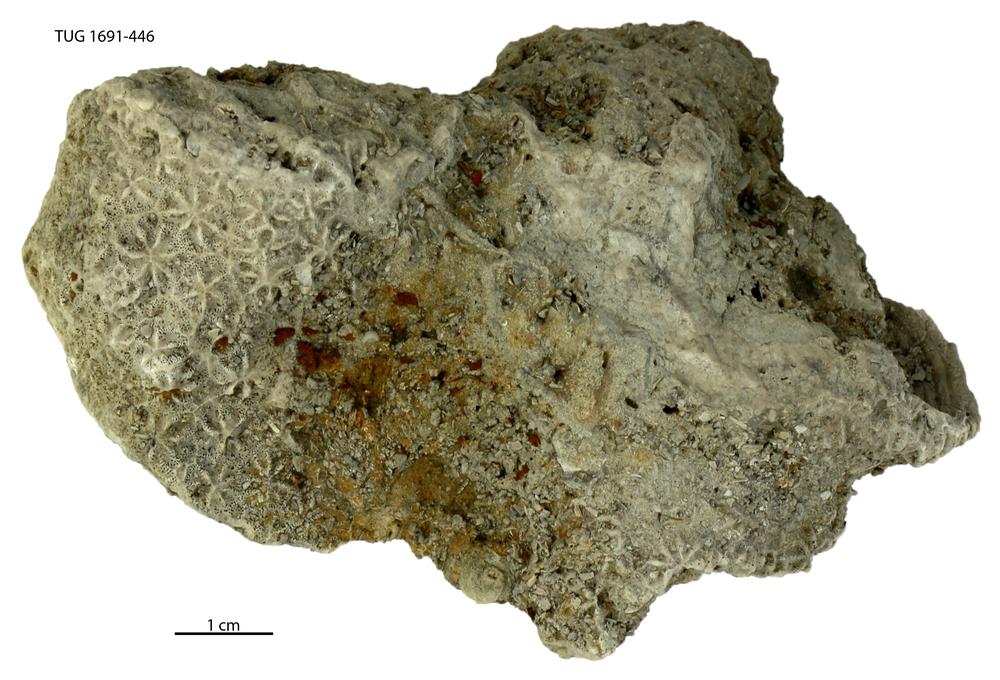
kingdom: Animalia
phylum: Bryozoa
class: Stenolaemata
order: Cystoporida
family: Constellariidae
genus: Revalopora
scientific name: Revalopora revalensis
